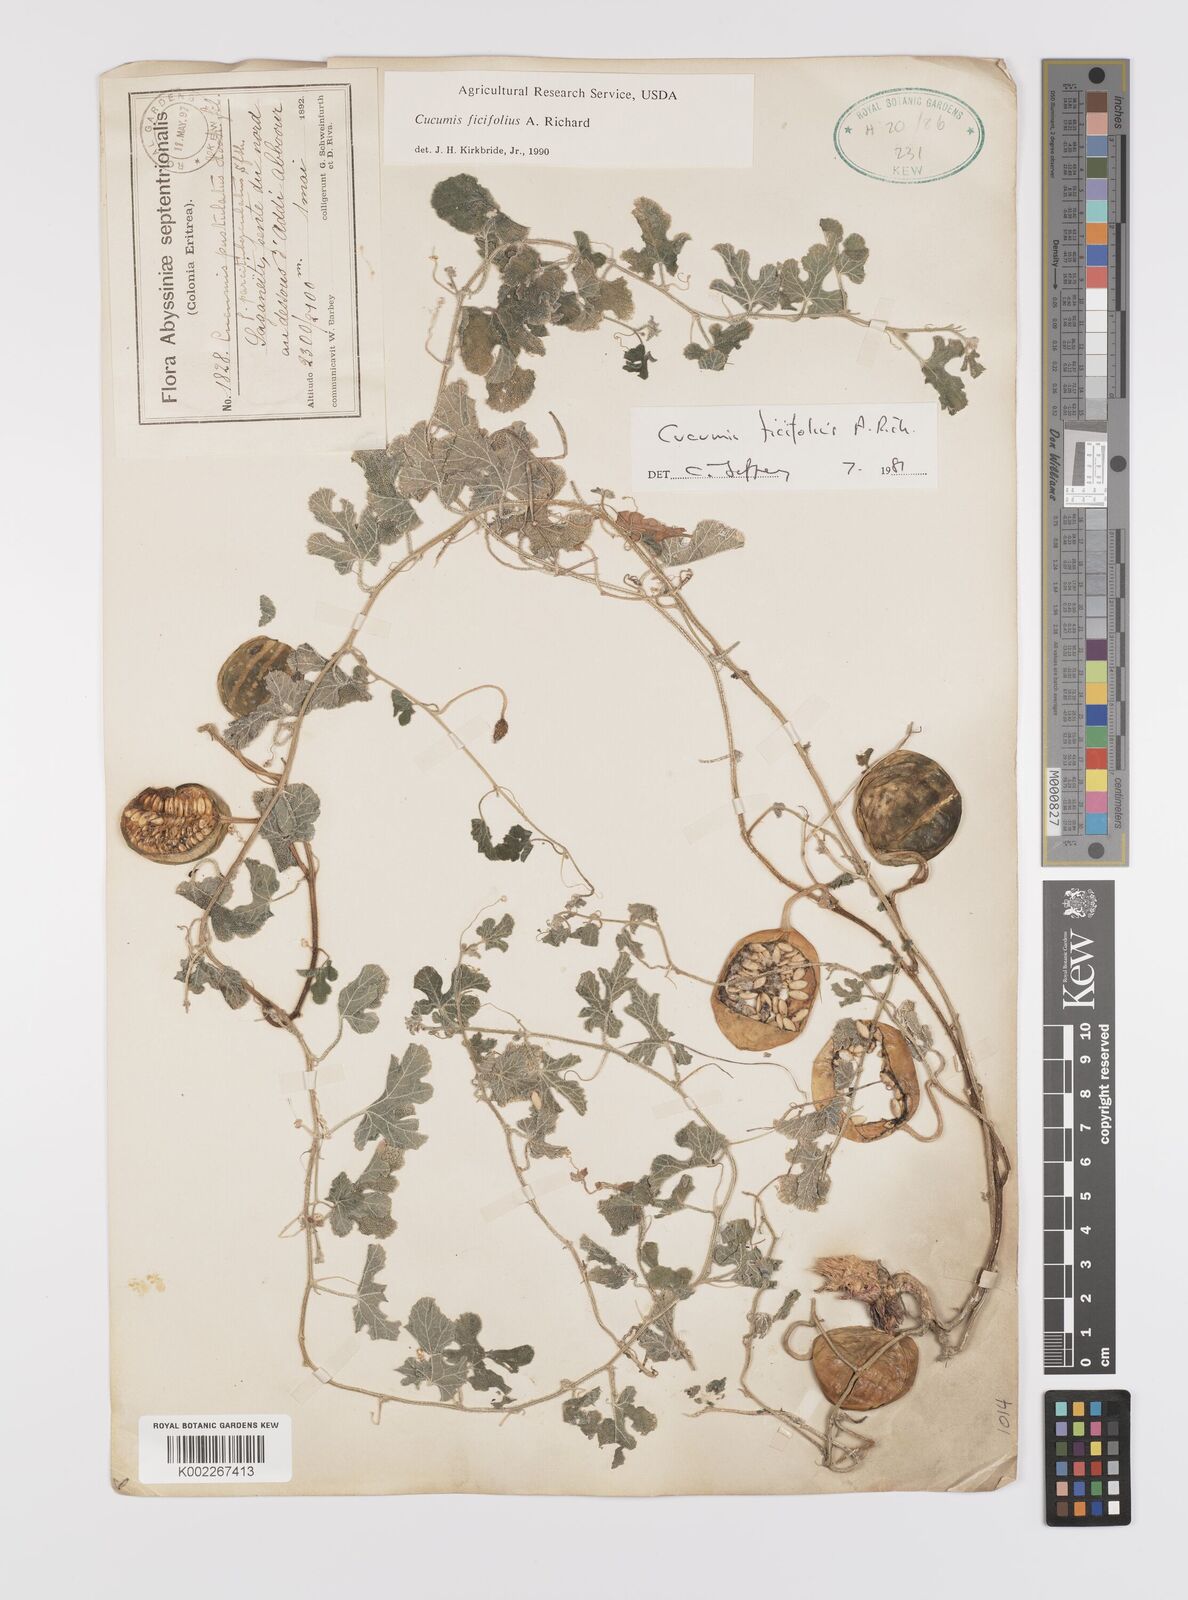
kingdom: Plantae
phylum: Tracheophyta
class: Magnoliopsida
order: Cucurbitales
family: Cucurbitaceae
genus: Cucumis
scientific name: Cucumis ficifolius
